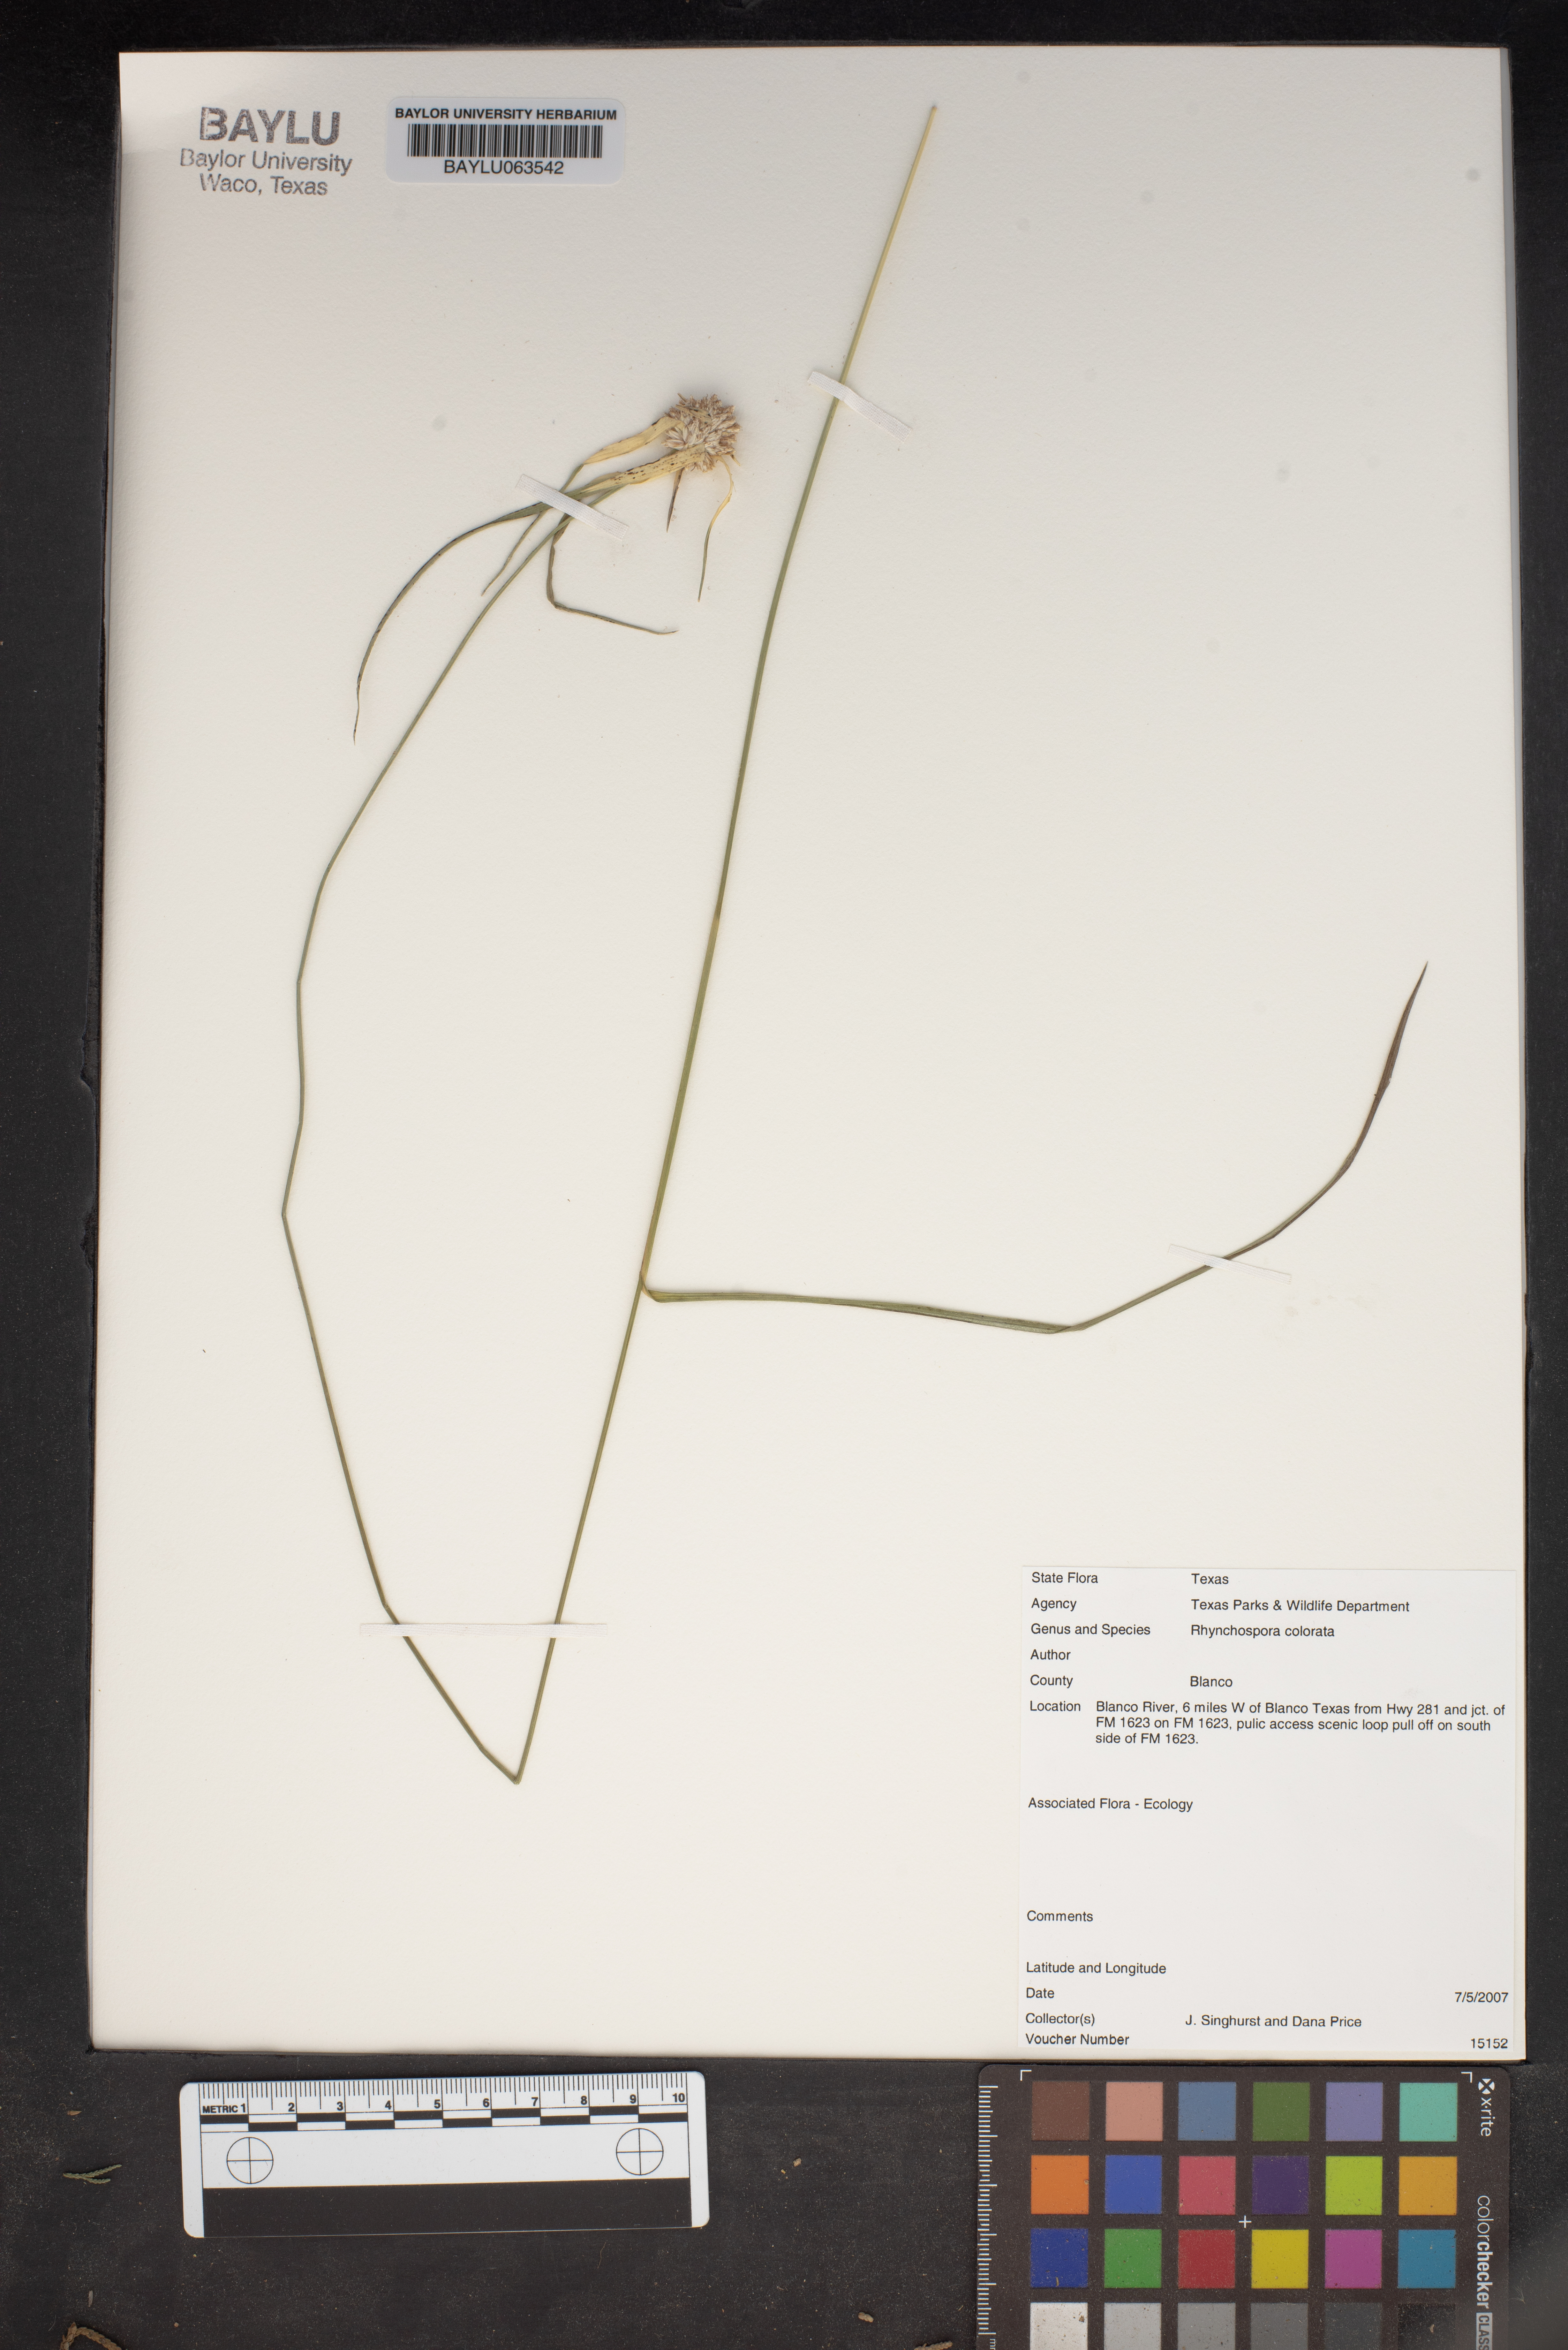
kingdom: Plantae
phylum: Tracheophyta
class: Liliopsida
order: Poales
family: Cyperaceae
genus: Rhynchospora
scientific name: Rhynchospora colorata
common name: Star sedge
